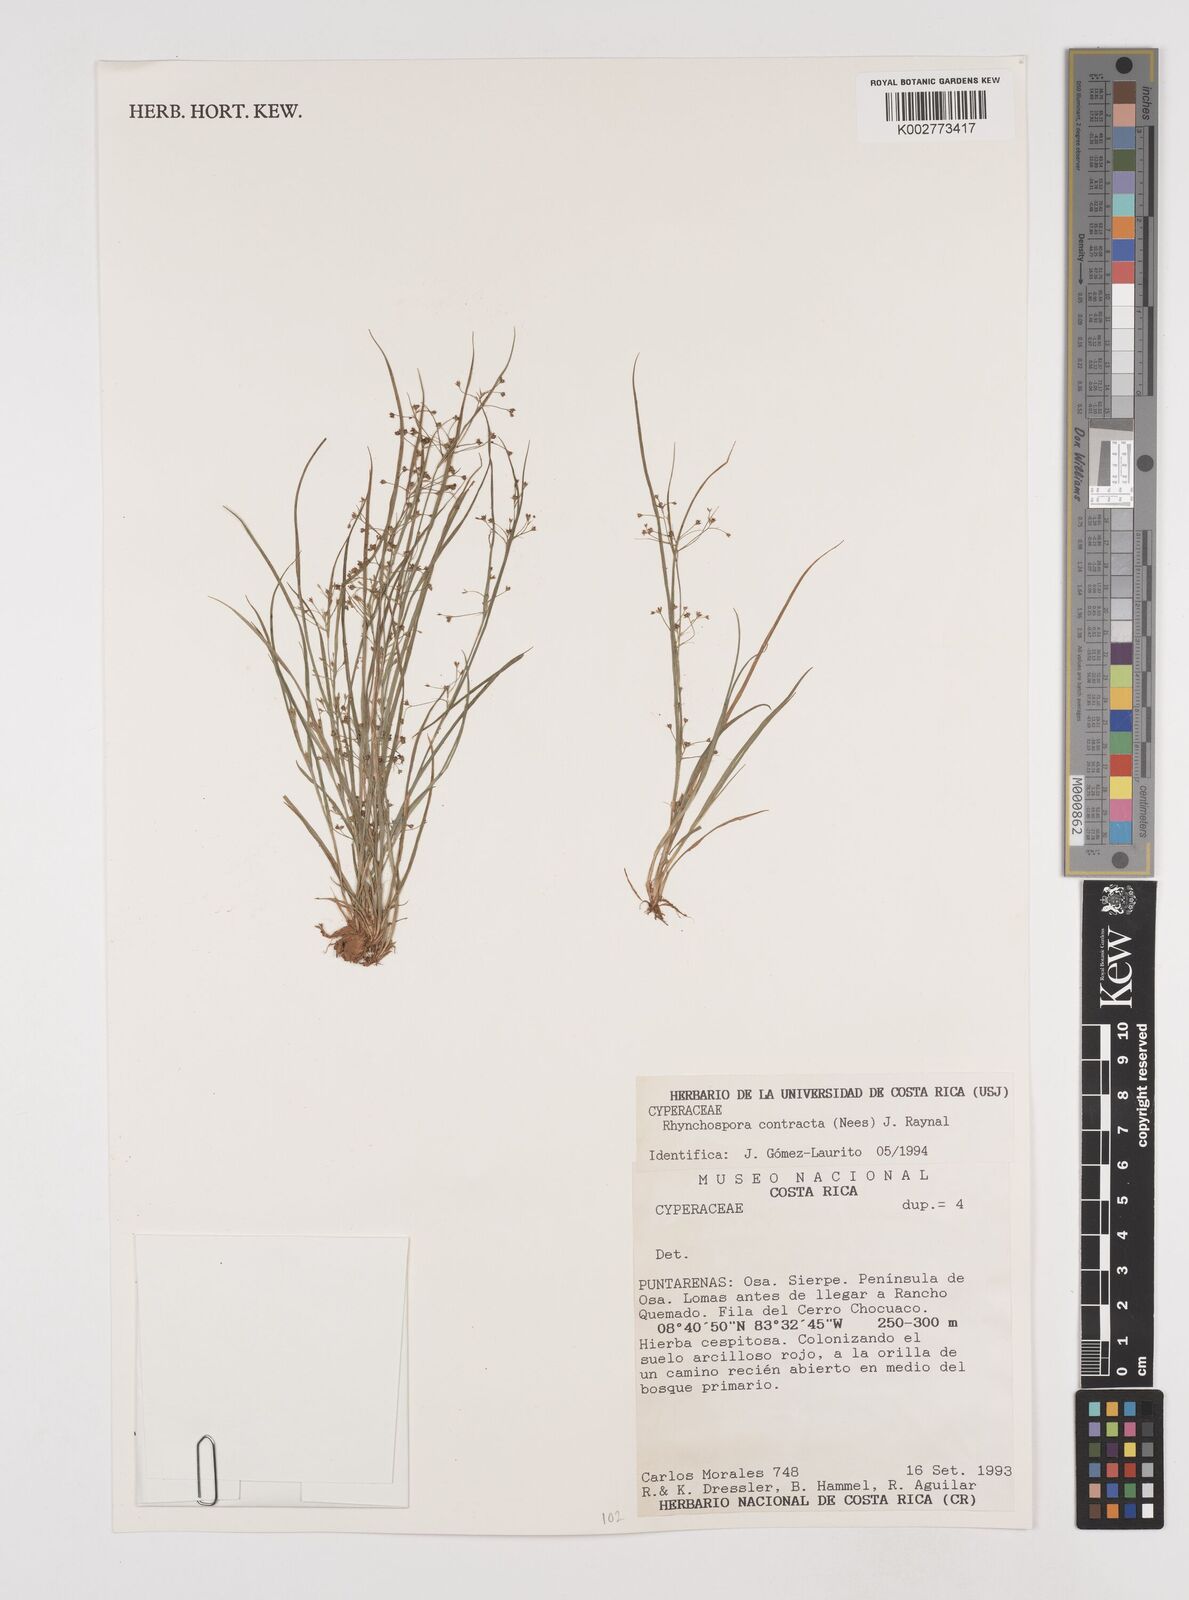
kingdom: Plantae
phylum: Tracheophyta
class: Liliopsida
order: Poales
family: Cyperaceae
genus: Rhynchospora
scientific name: Rhynchospora contracta
